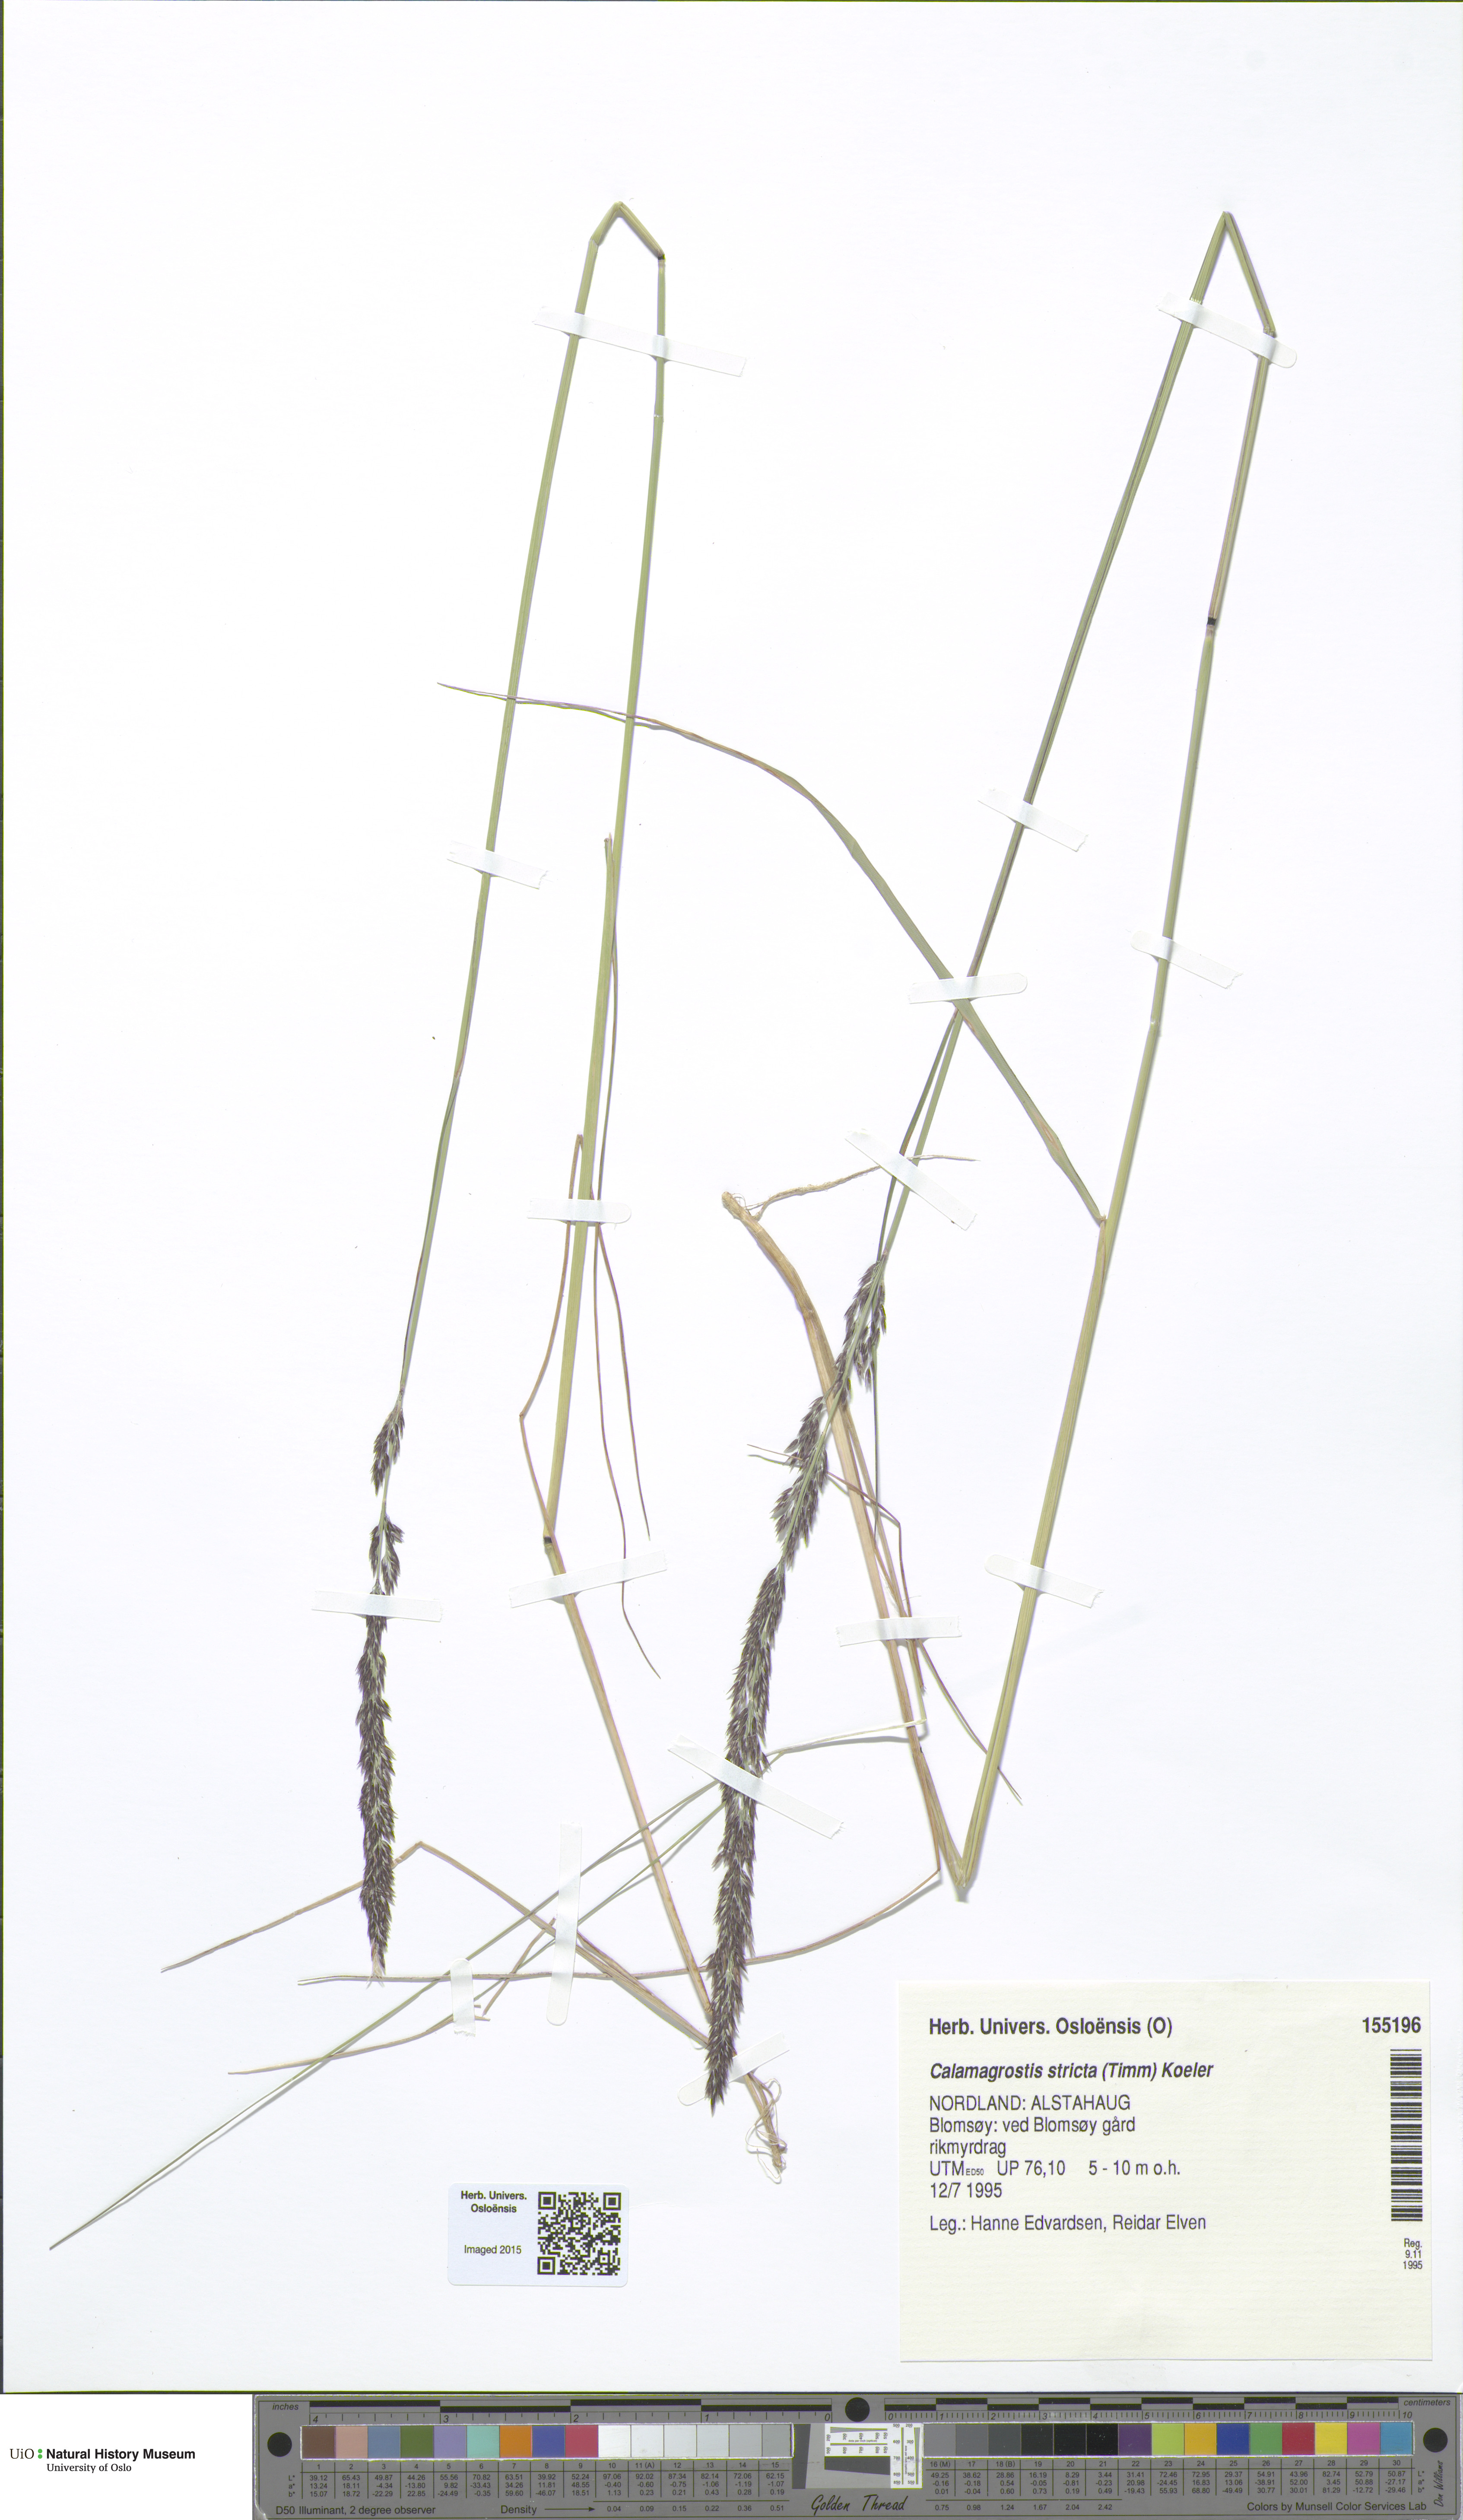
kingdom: Plantae
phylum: Tracheophyta
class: Liliopsida
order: Poales
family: Poaceae
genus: Achnatherum
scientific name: Achnatherum calamagrostis
